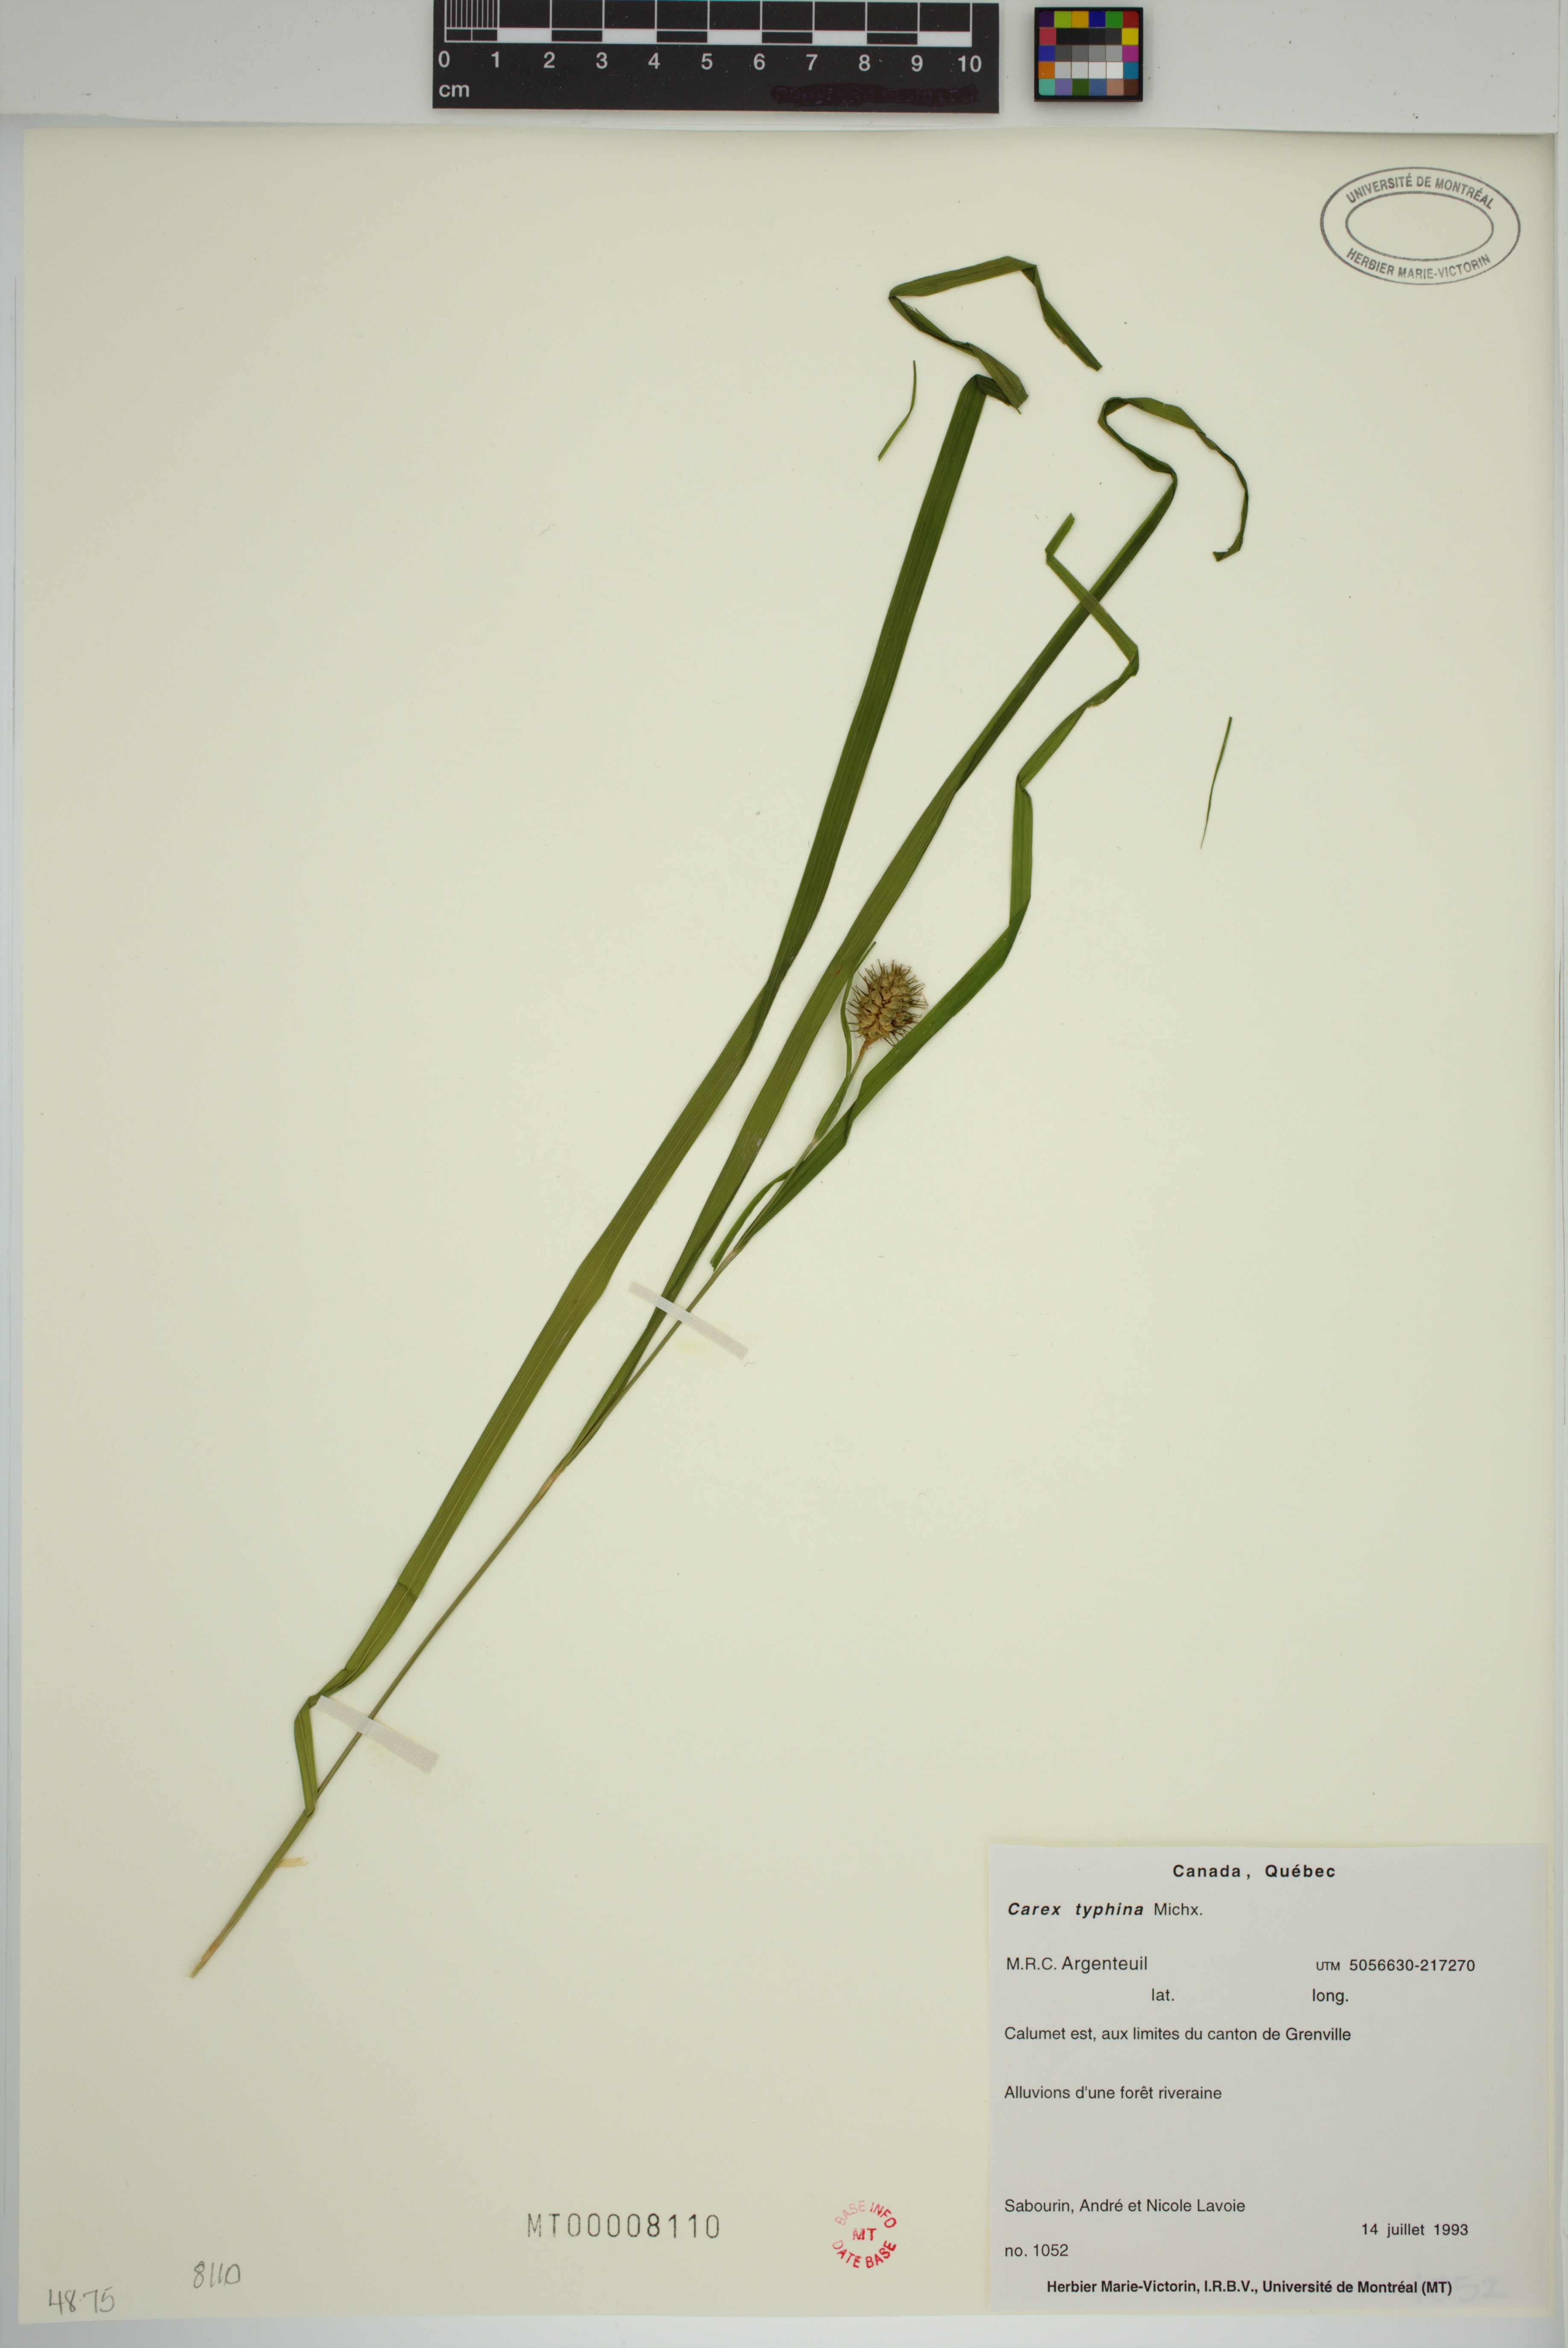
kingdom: Plantae
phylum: Tracheophyta
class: Liliopsida
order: Poales
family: Cyperaceae
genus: Carex
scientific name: Carex typhina
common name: Cattail sedge
